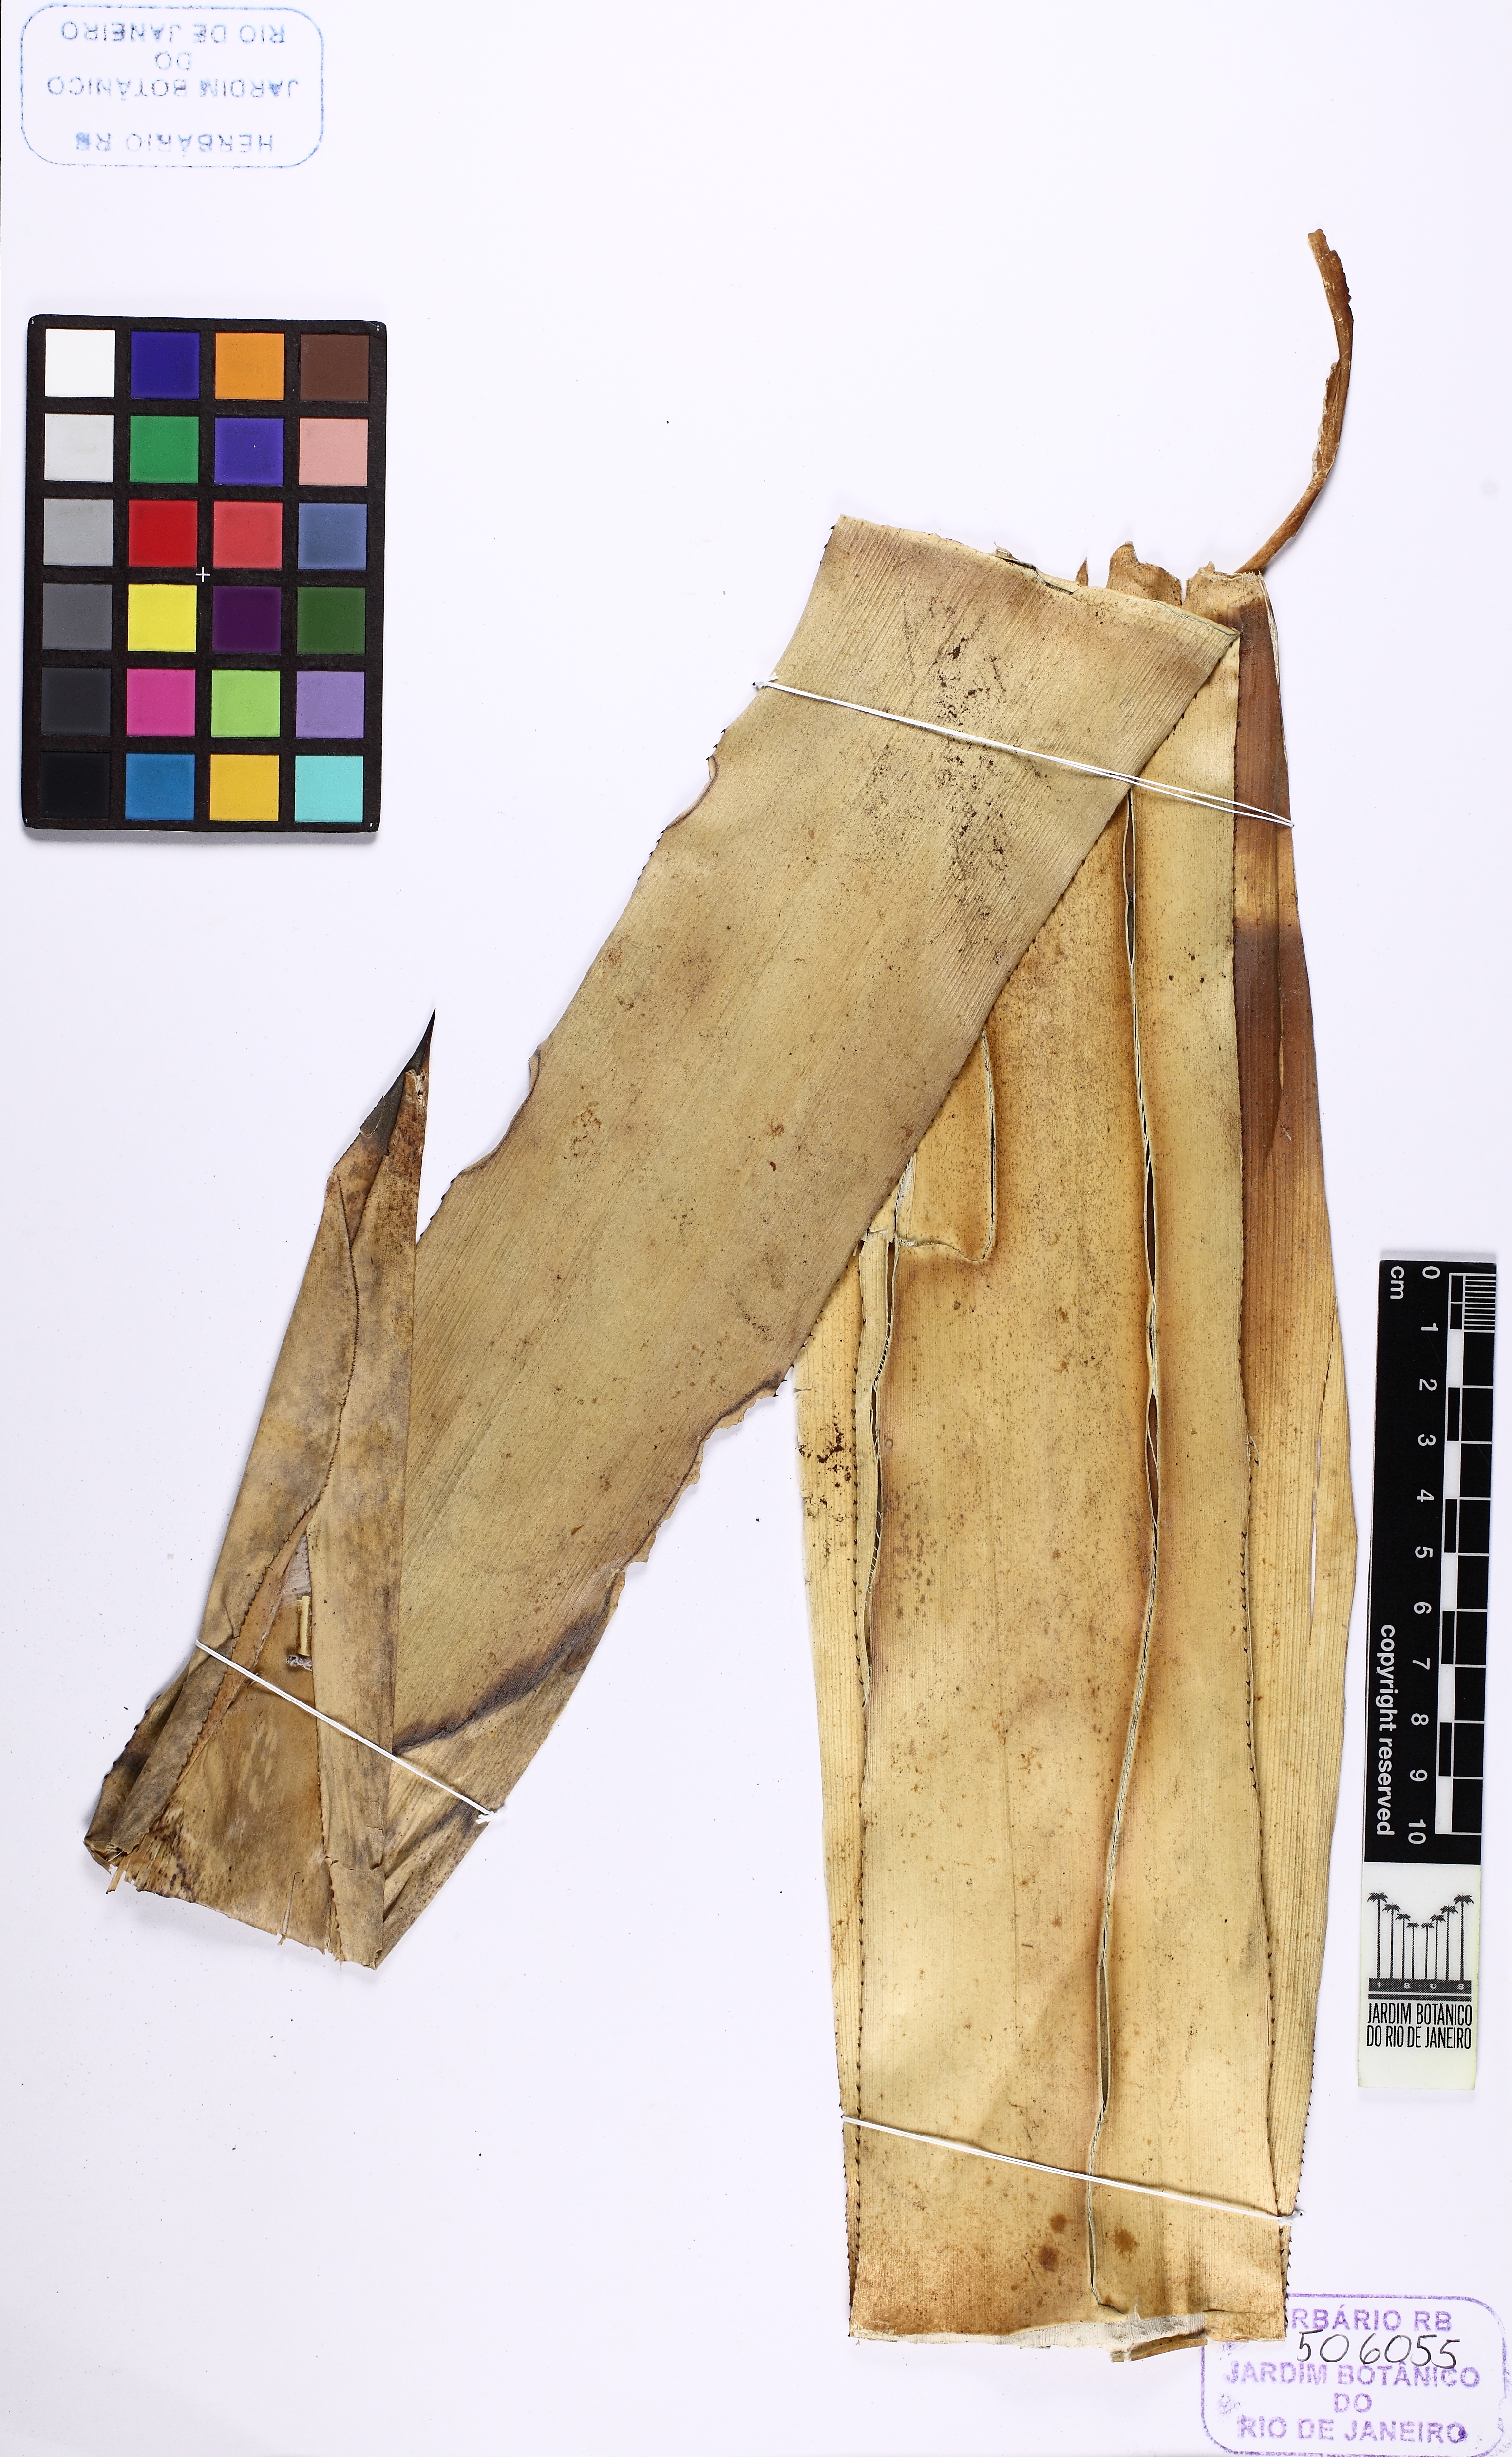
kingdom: Plantae
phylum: Tracheophyta
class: Liliopsida
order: Poales
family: Bromeliaceae
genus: Wittmackia
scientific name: Wittmackia maranguapensis
